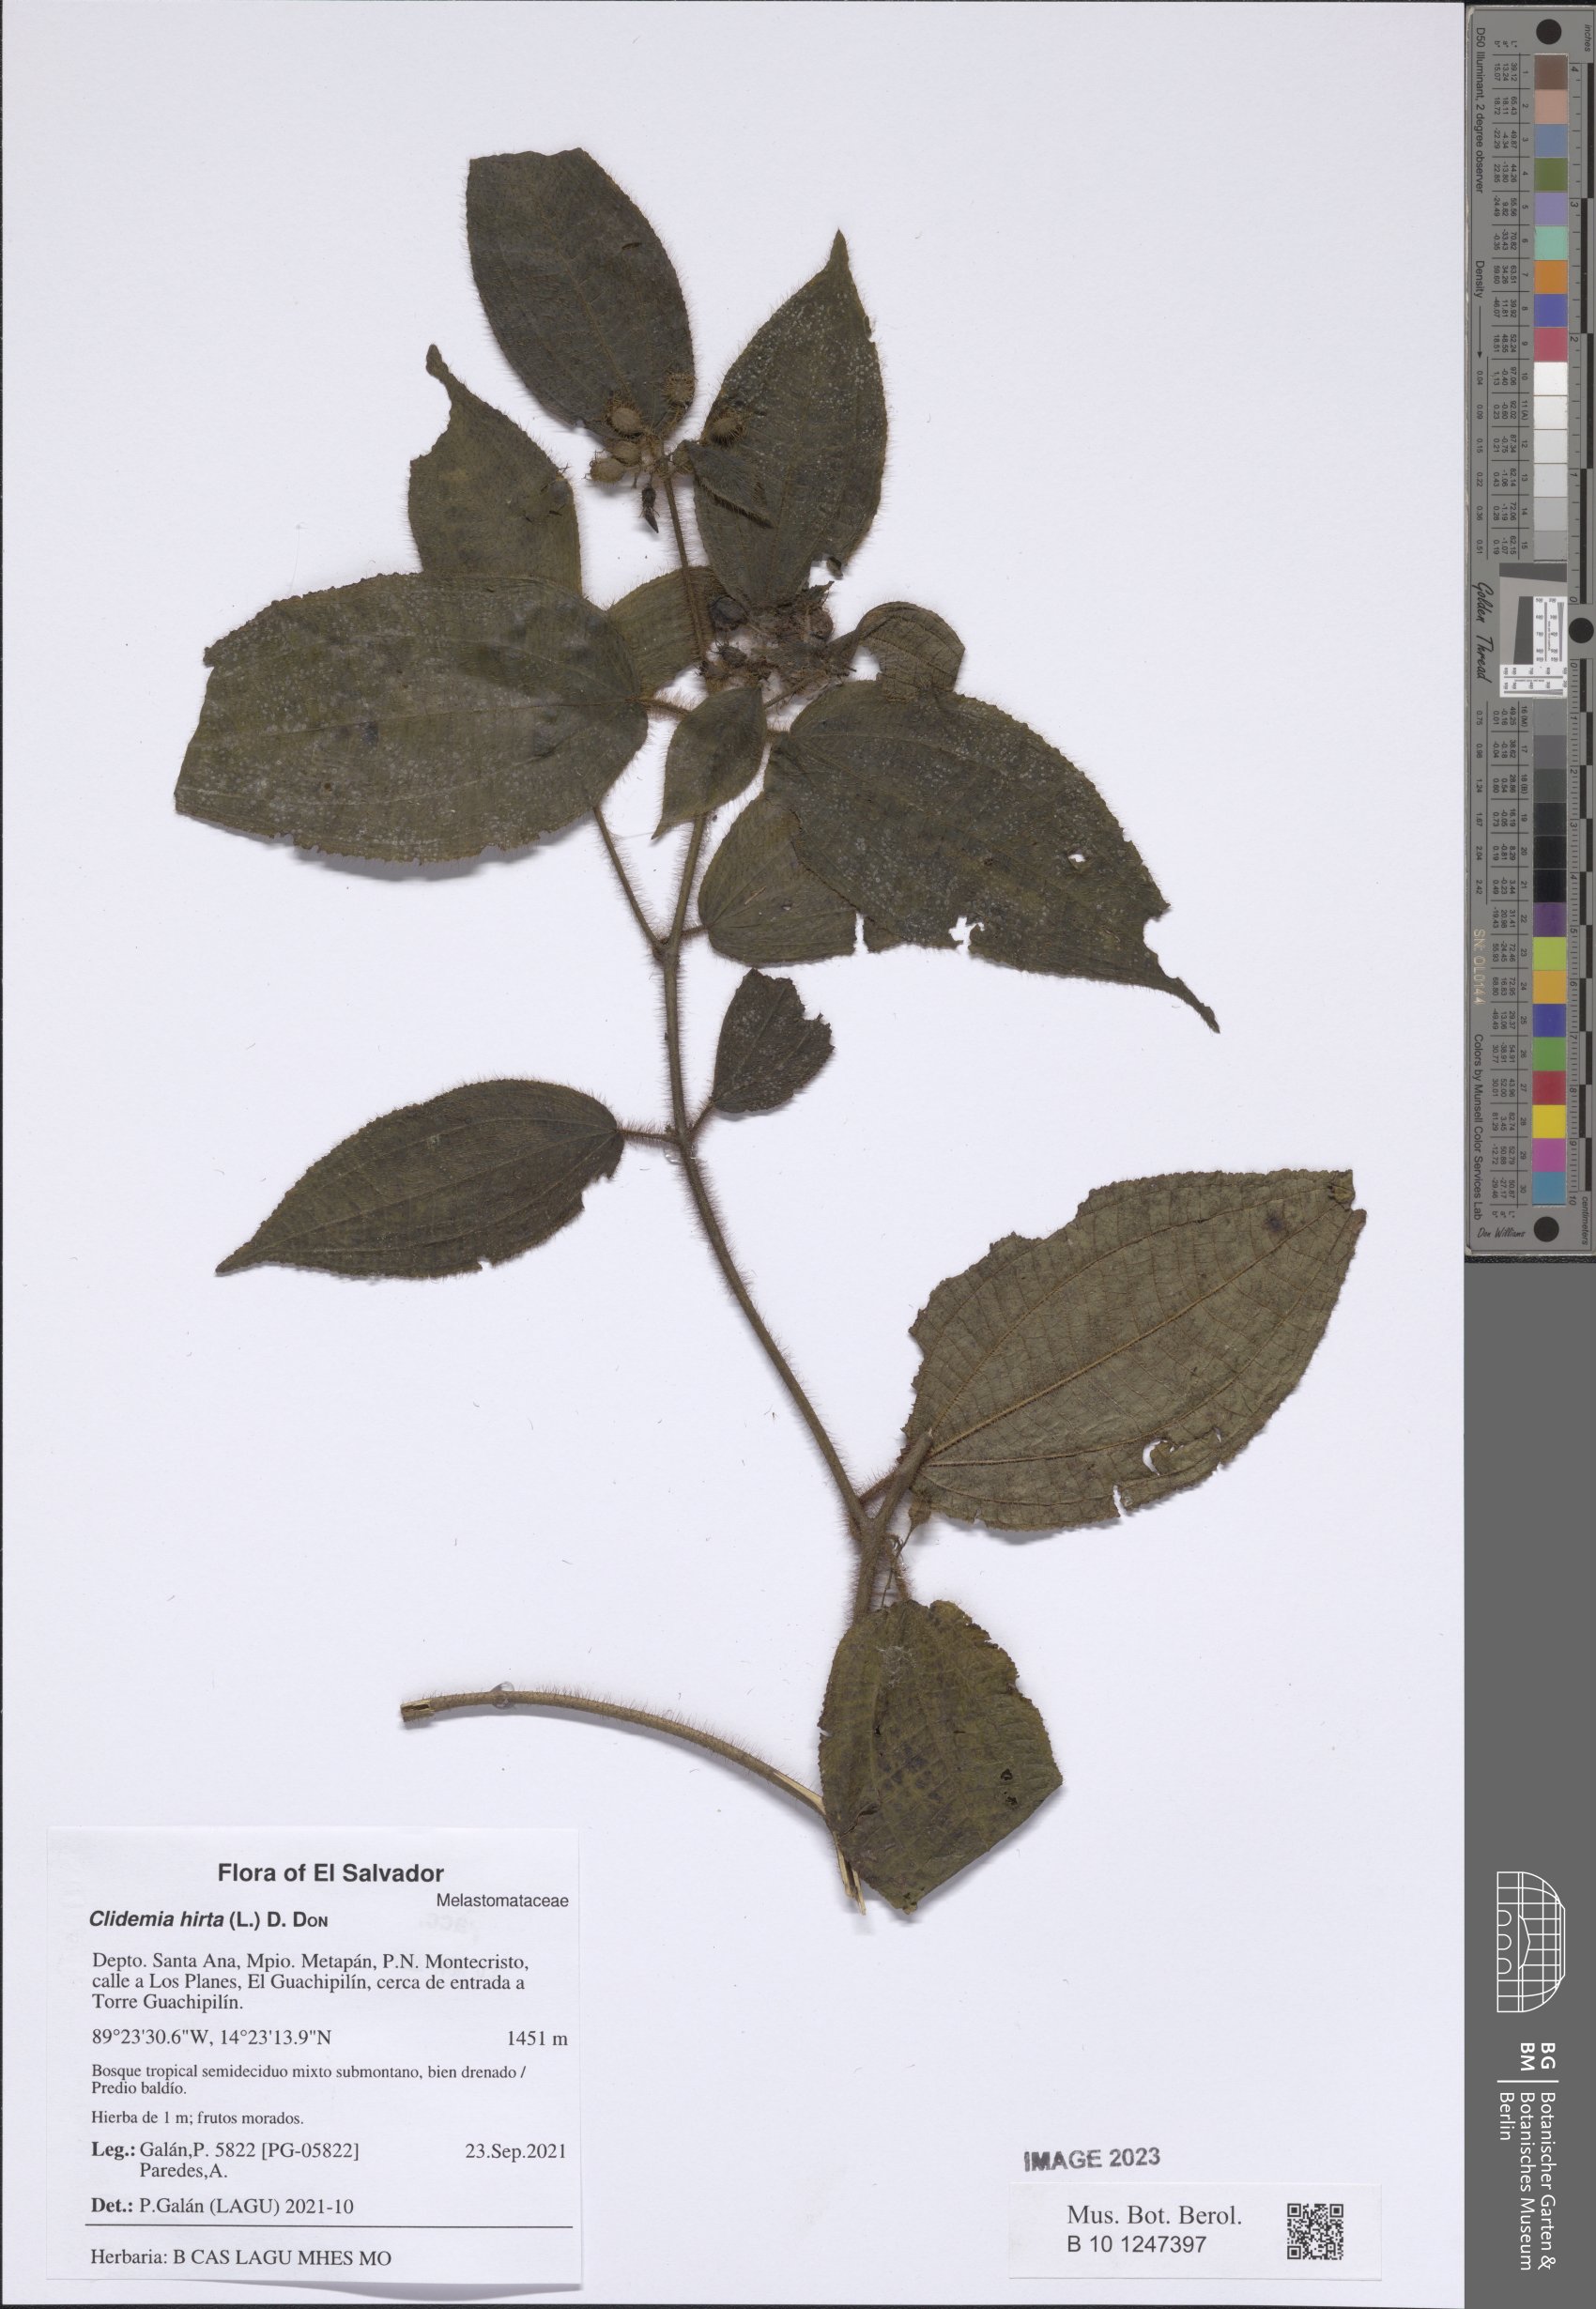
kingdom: Plantae
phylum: Tracheophyta
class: Magnoliopsida
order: Myrtales
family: Melastomataceae
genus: Miconia
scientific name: Miconia crenata
